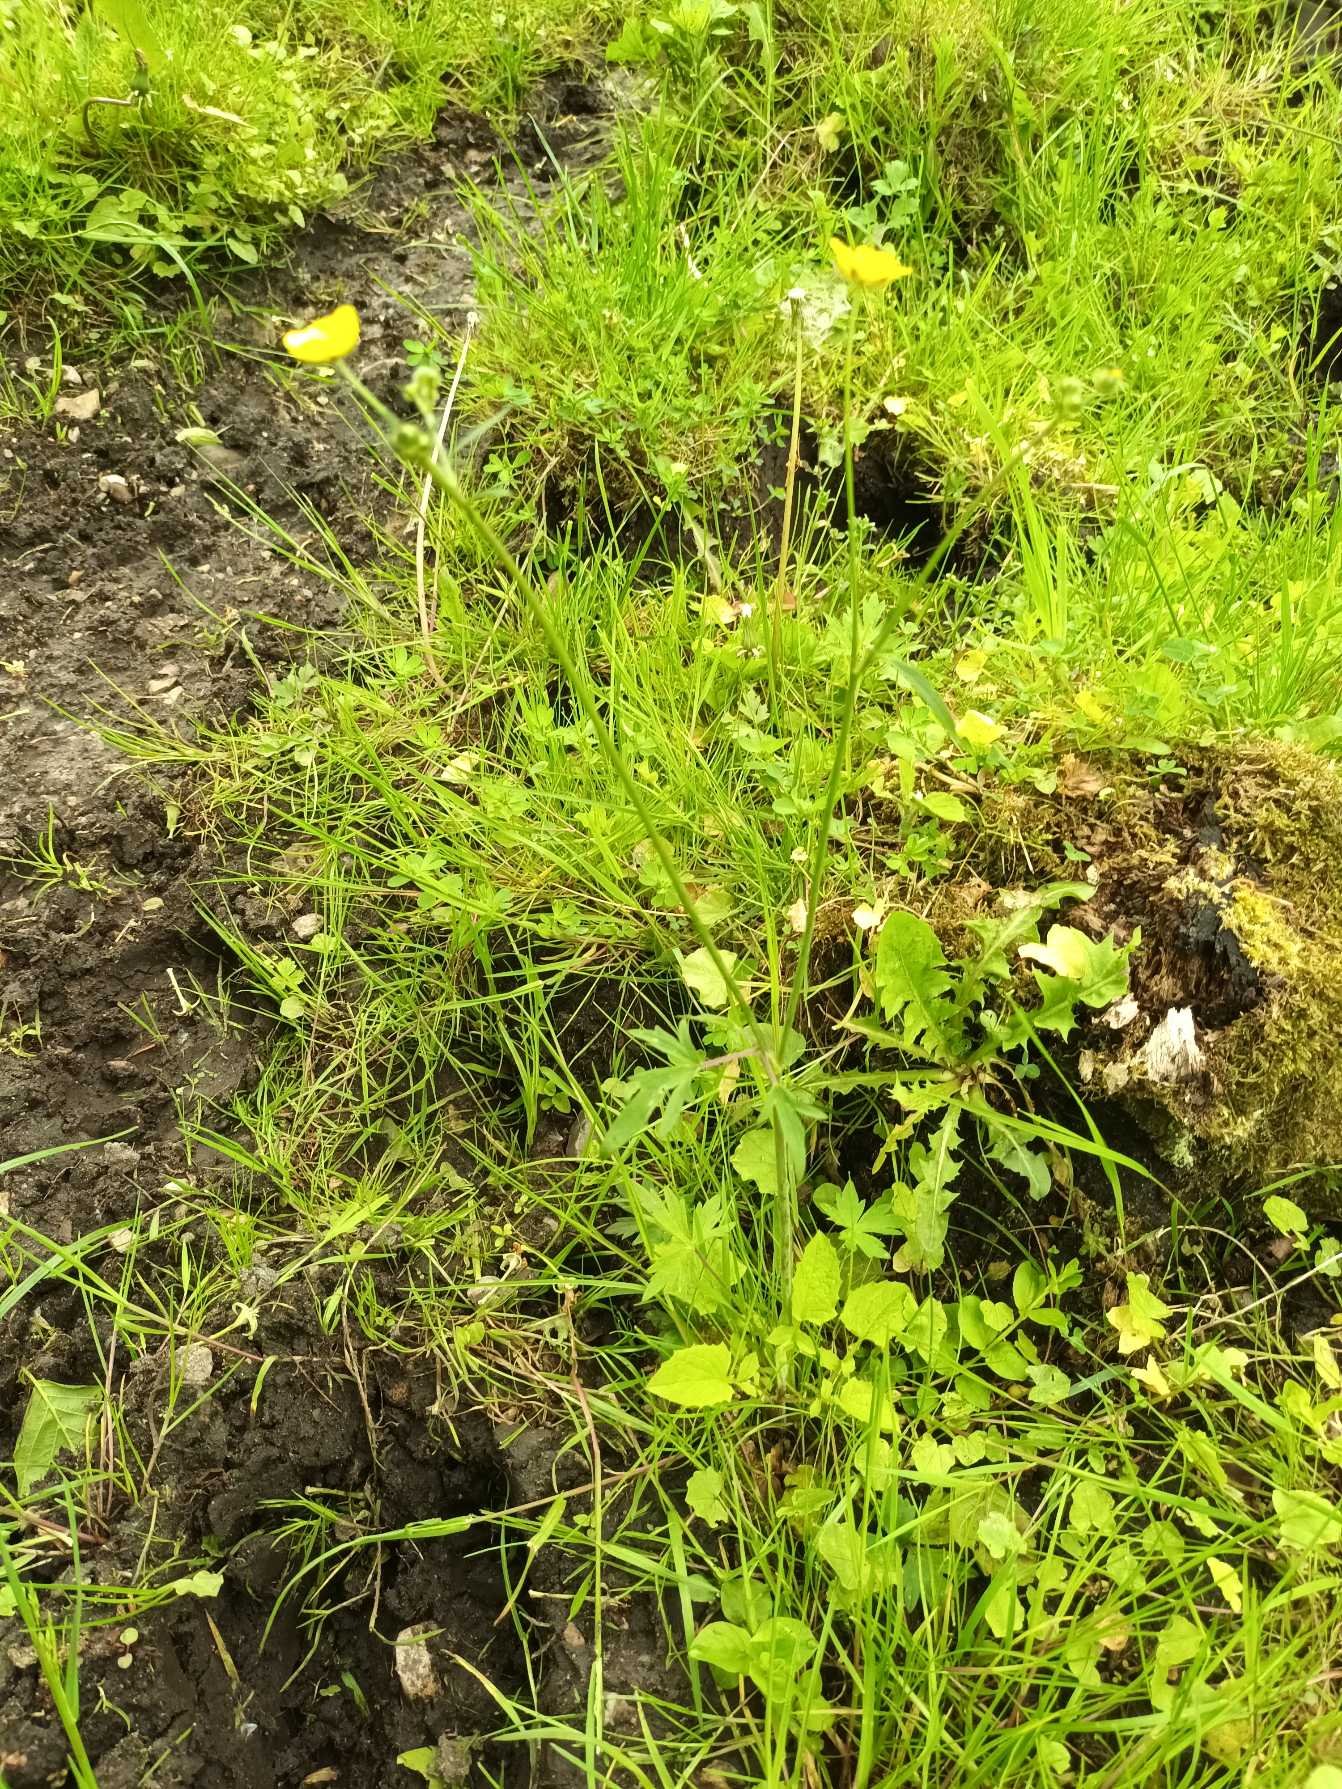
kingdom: Plantae
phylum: Tracheophyta
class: Magnoliopsida
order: Ranunculales
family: Ranunculaceae
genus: Ranunculus
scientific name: Ranunculus acris
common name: Bidende ranunkel
